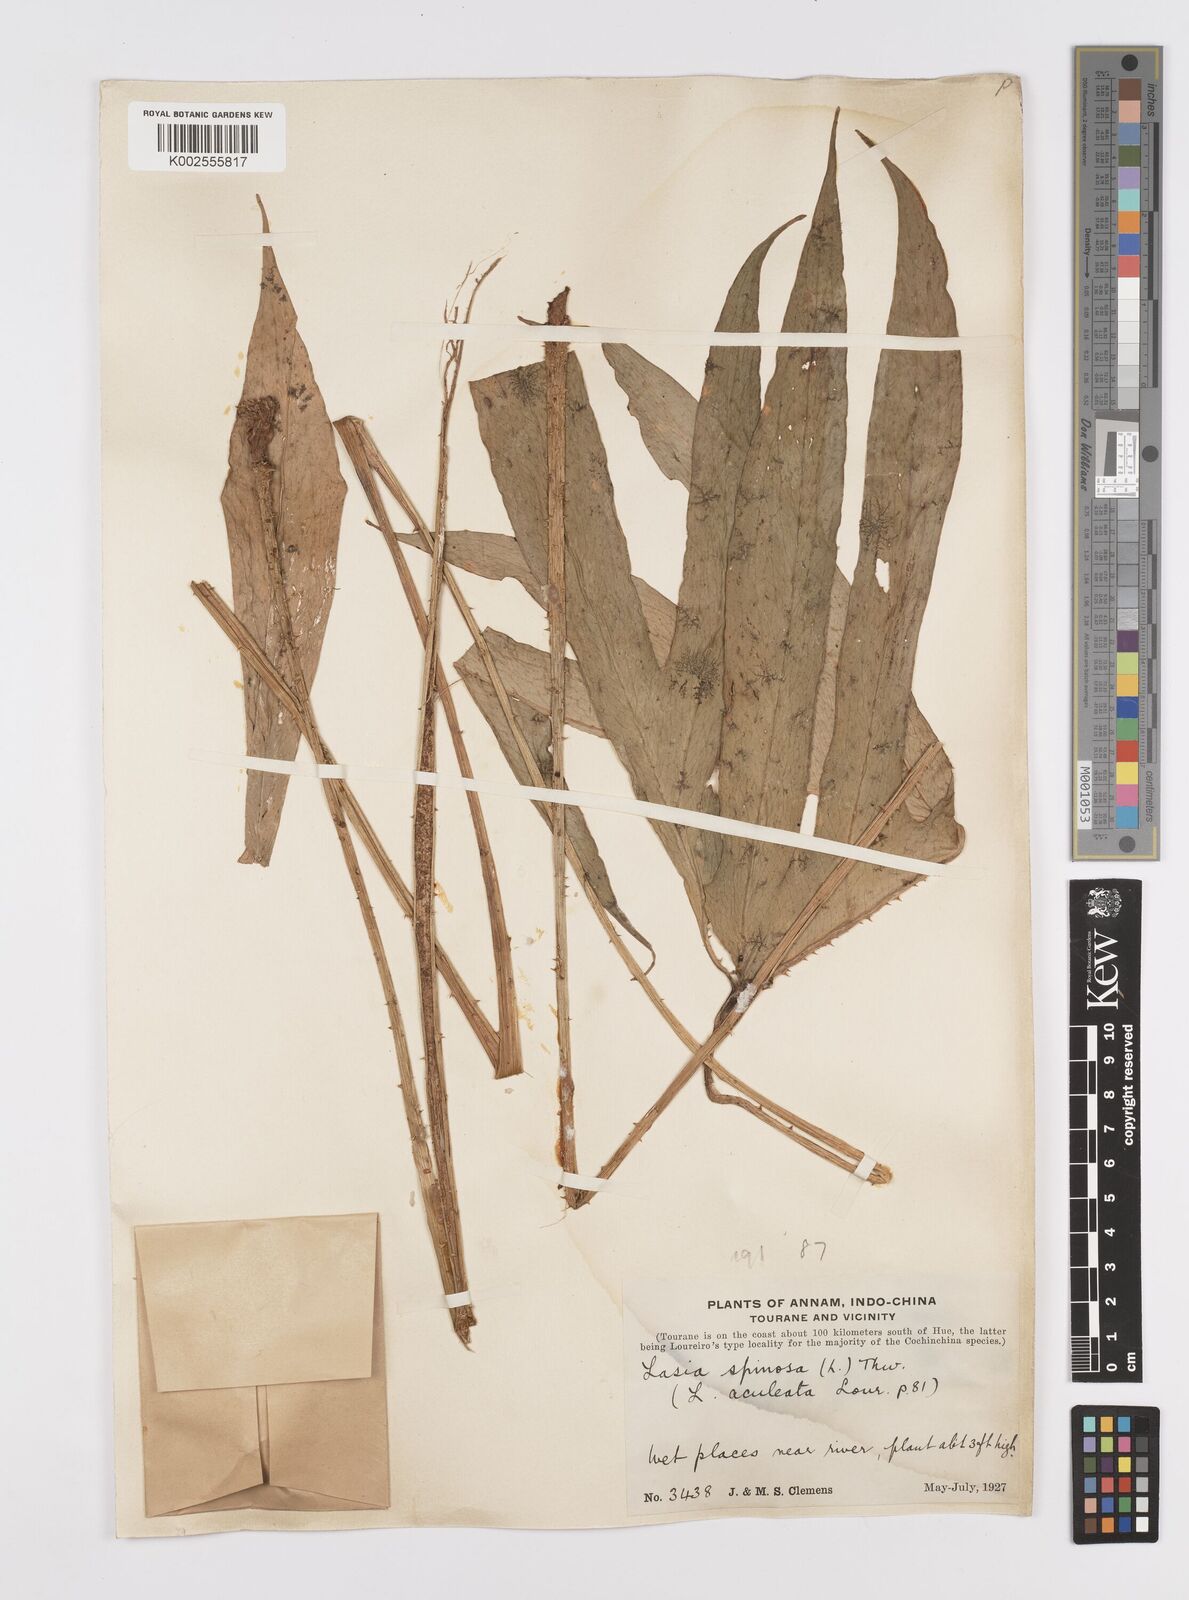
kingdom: Plantae
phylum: Tracheophyta
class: Liliopsida
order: Alismatales
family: Araceae
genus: Lasia
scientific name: Lasia spinosa
